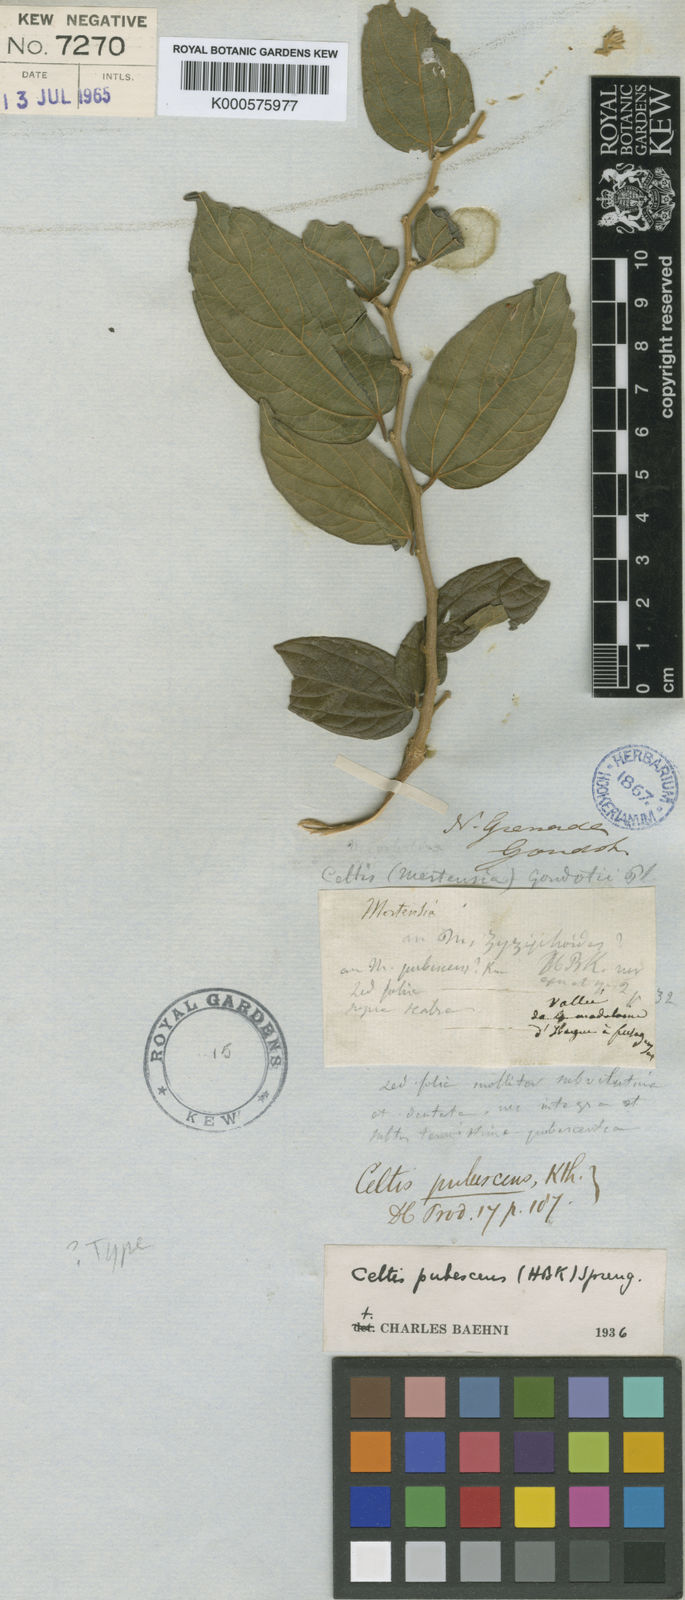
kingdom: Plantae
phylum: Tracheophyta
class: Magnoliopsida
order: Rosales
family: Cannabaceae
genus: Celtis
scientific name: Celtis iguanaea
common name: Iguana hackberry
